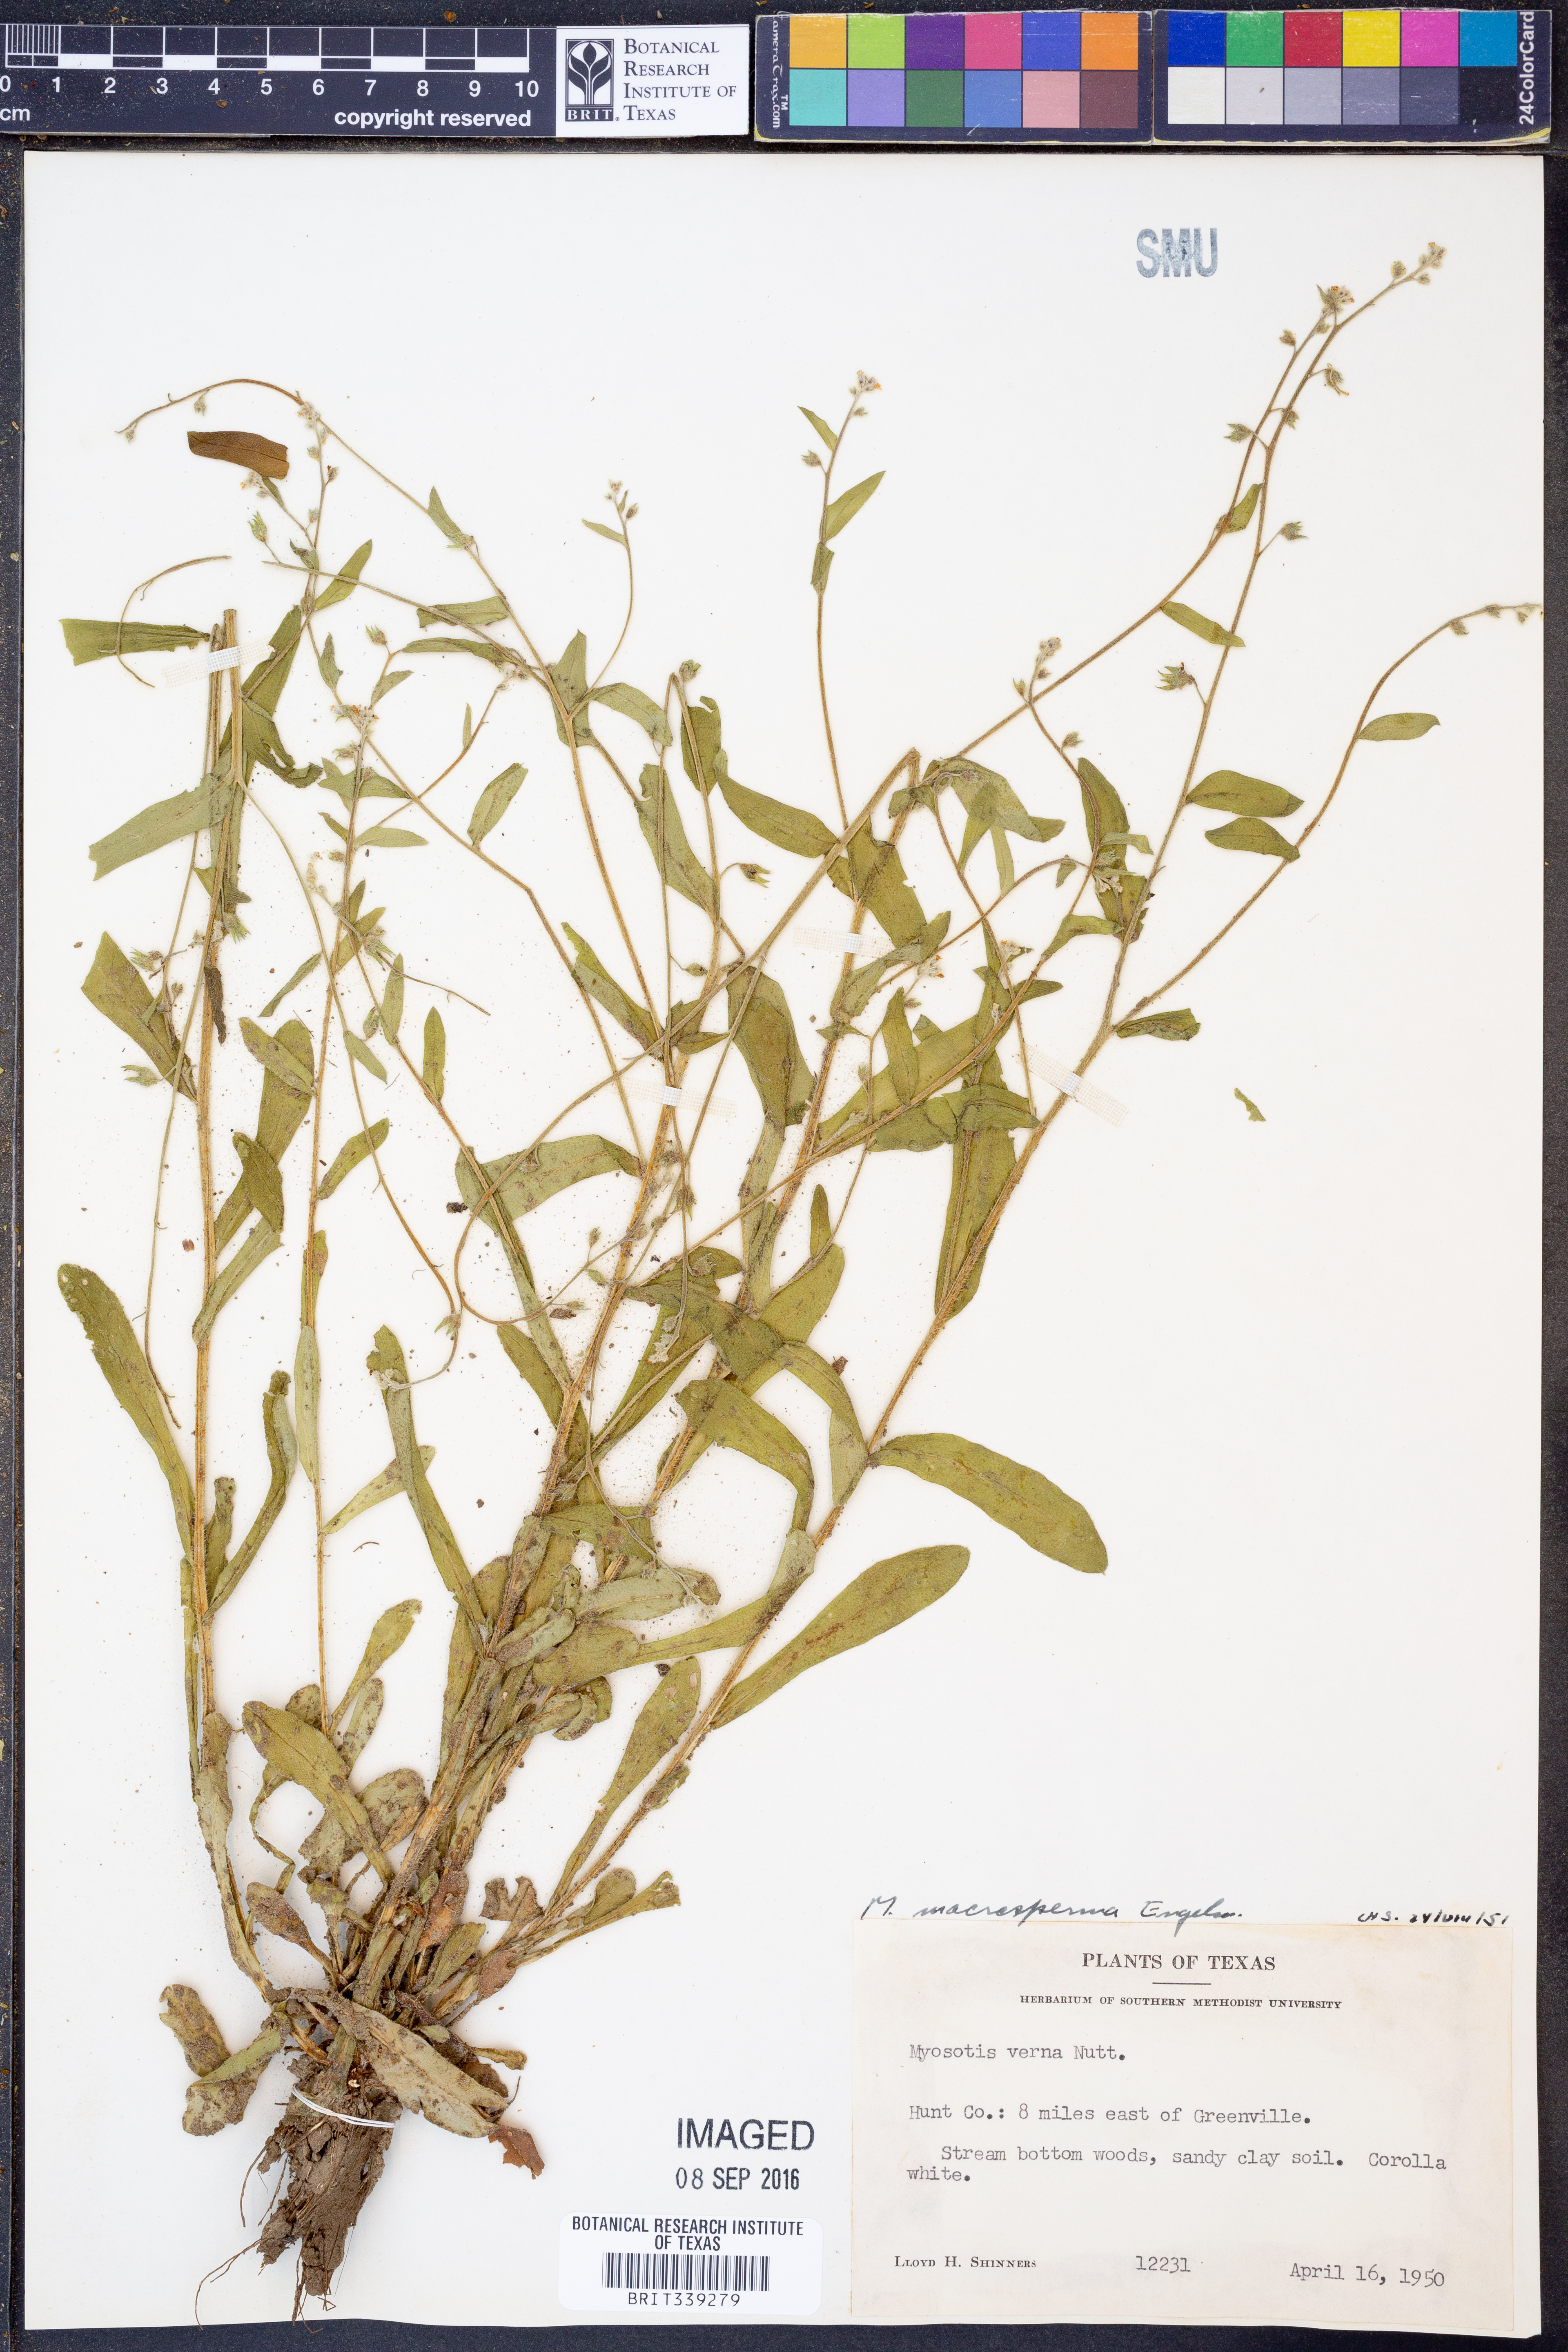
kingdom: Plantae
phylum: Tracheophyta
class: Magnoliopsida
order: Boraginales
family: Boraginaceae
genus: Myosotis
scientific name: Myosotis macrosperma
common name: Large-seed forget-me-not
